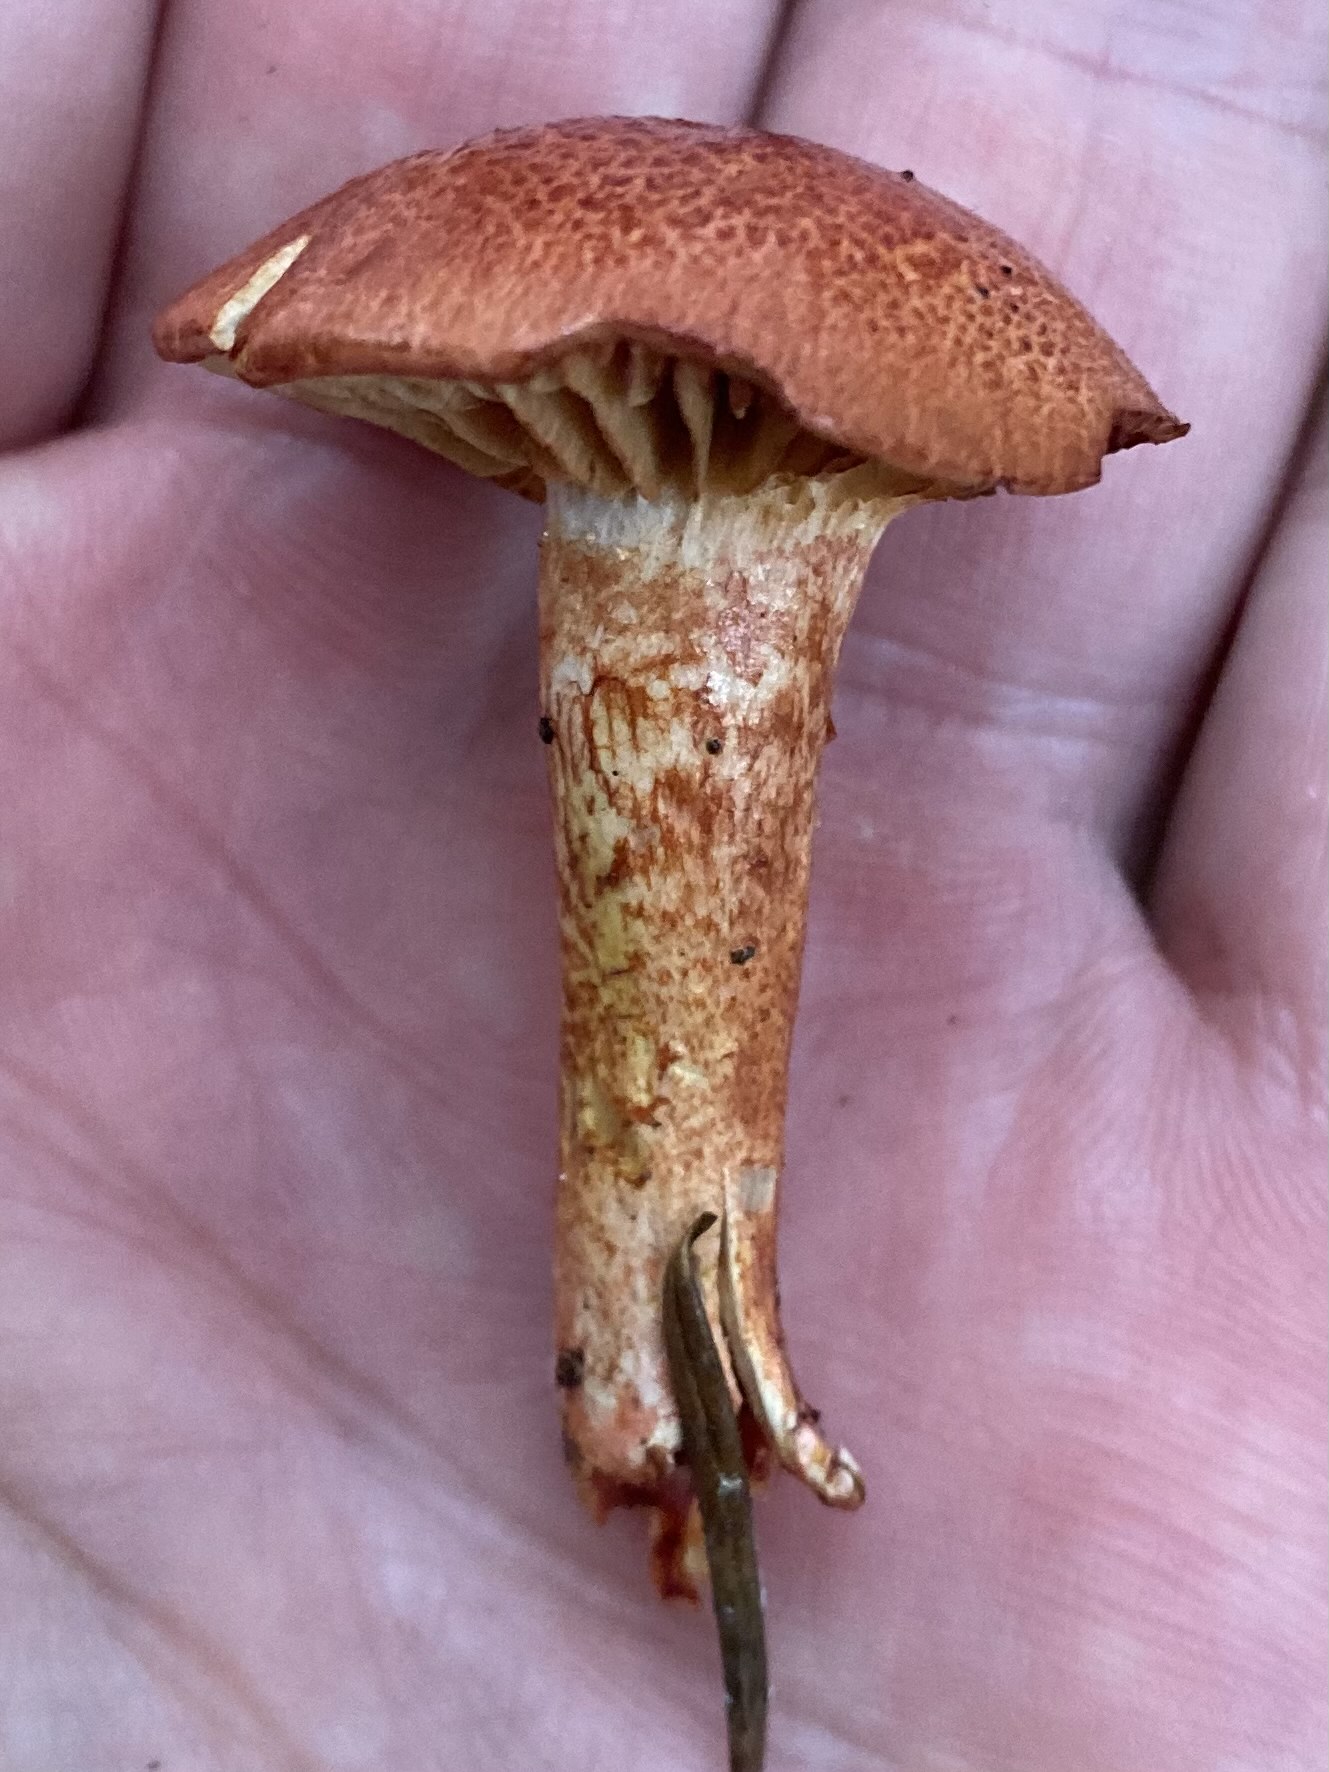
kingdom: Fungi
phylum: Basidiomycota
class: Agaricomycetes
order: Agaricales
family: Cortinariaceae
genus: Cortinarius
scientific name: Cortinarius bolaris
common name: cinnoberskællet slørhat
